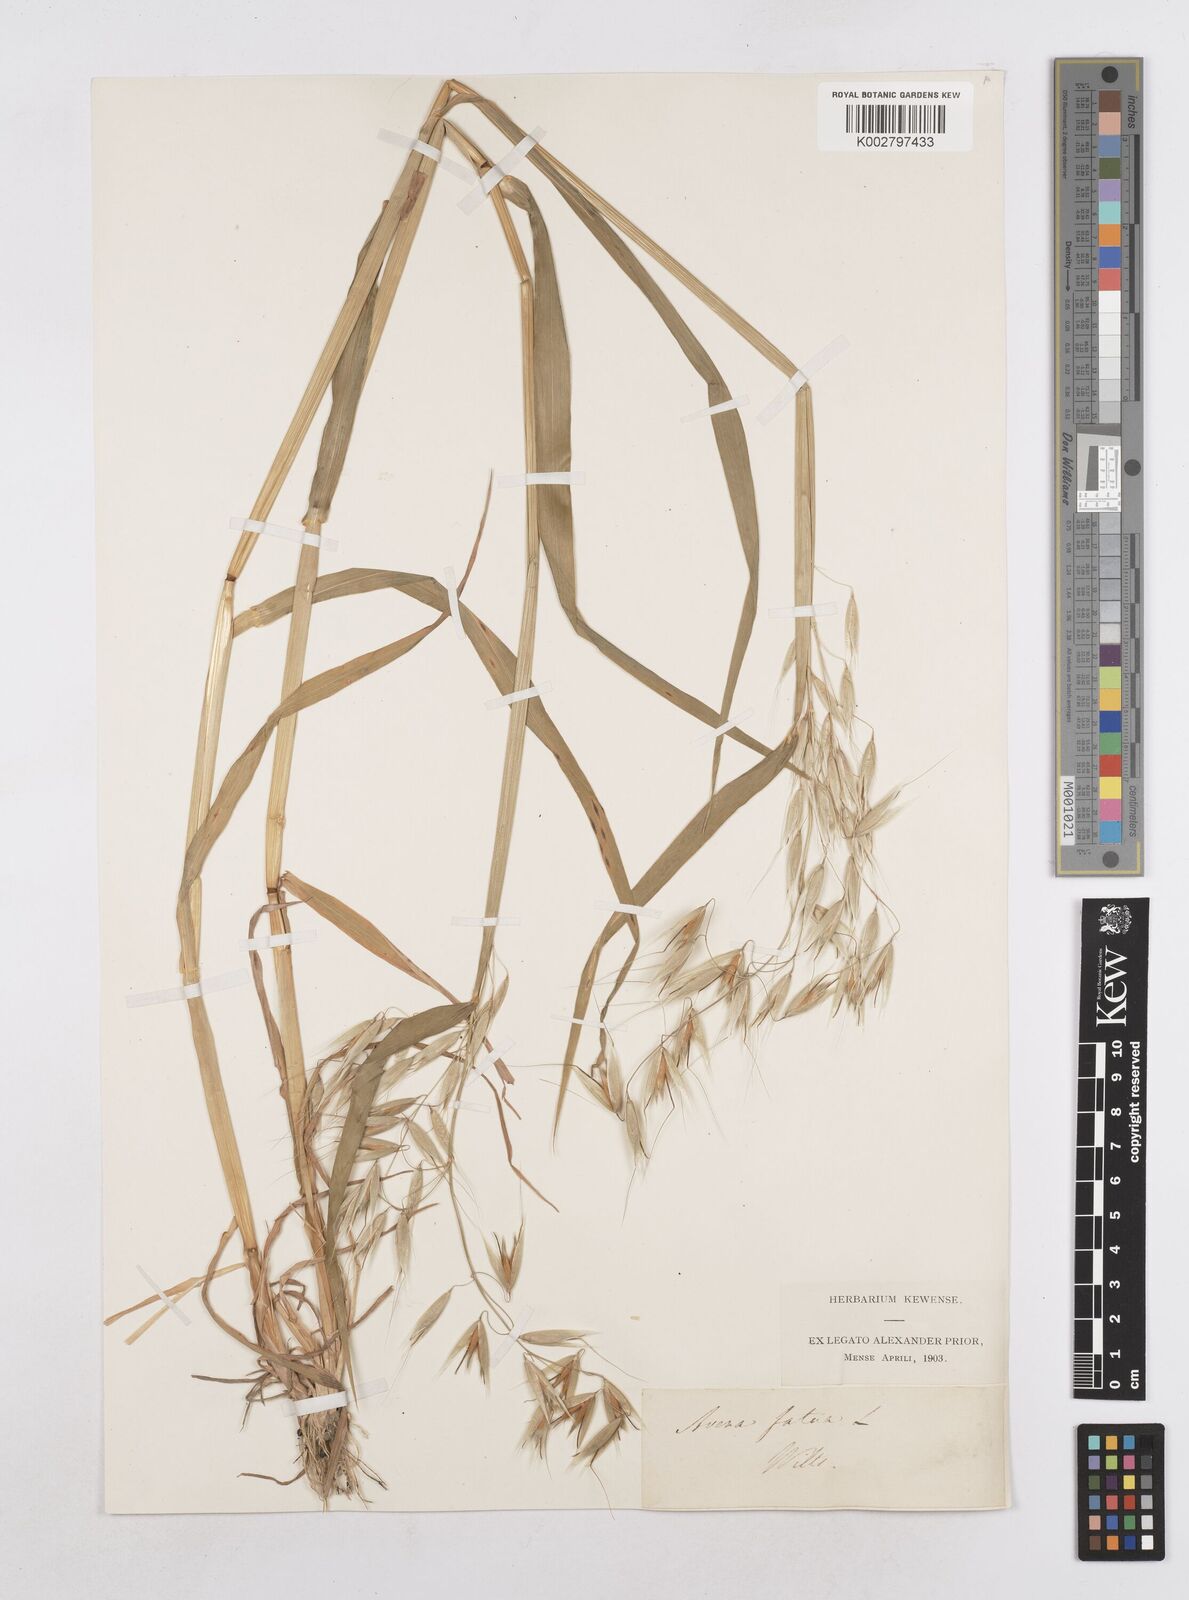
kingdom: Plantae
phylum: Tracheophyta
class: Liliopsida
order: Poales
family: Poaceae
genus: Avena
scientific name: Avena fatua
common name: Wild oat
